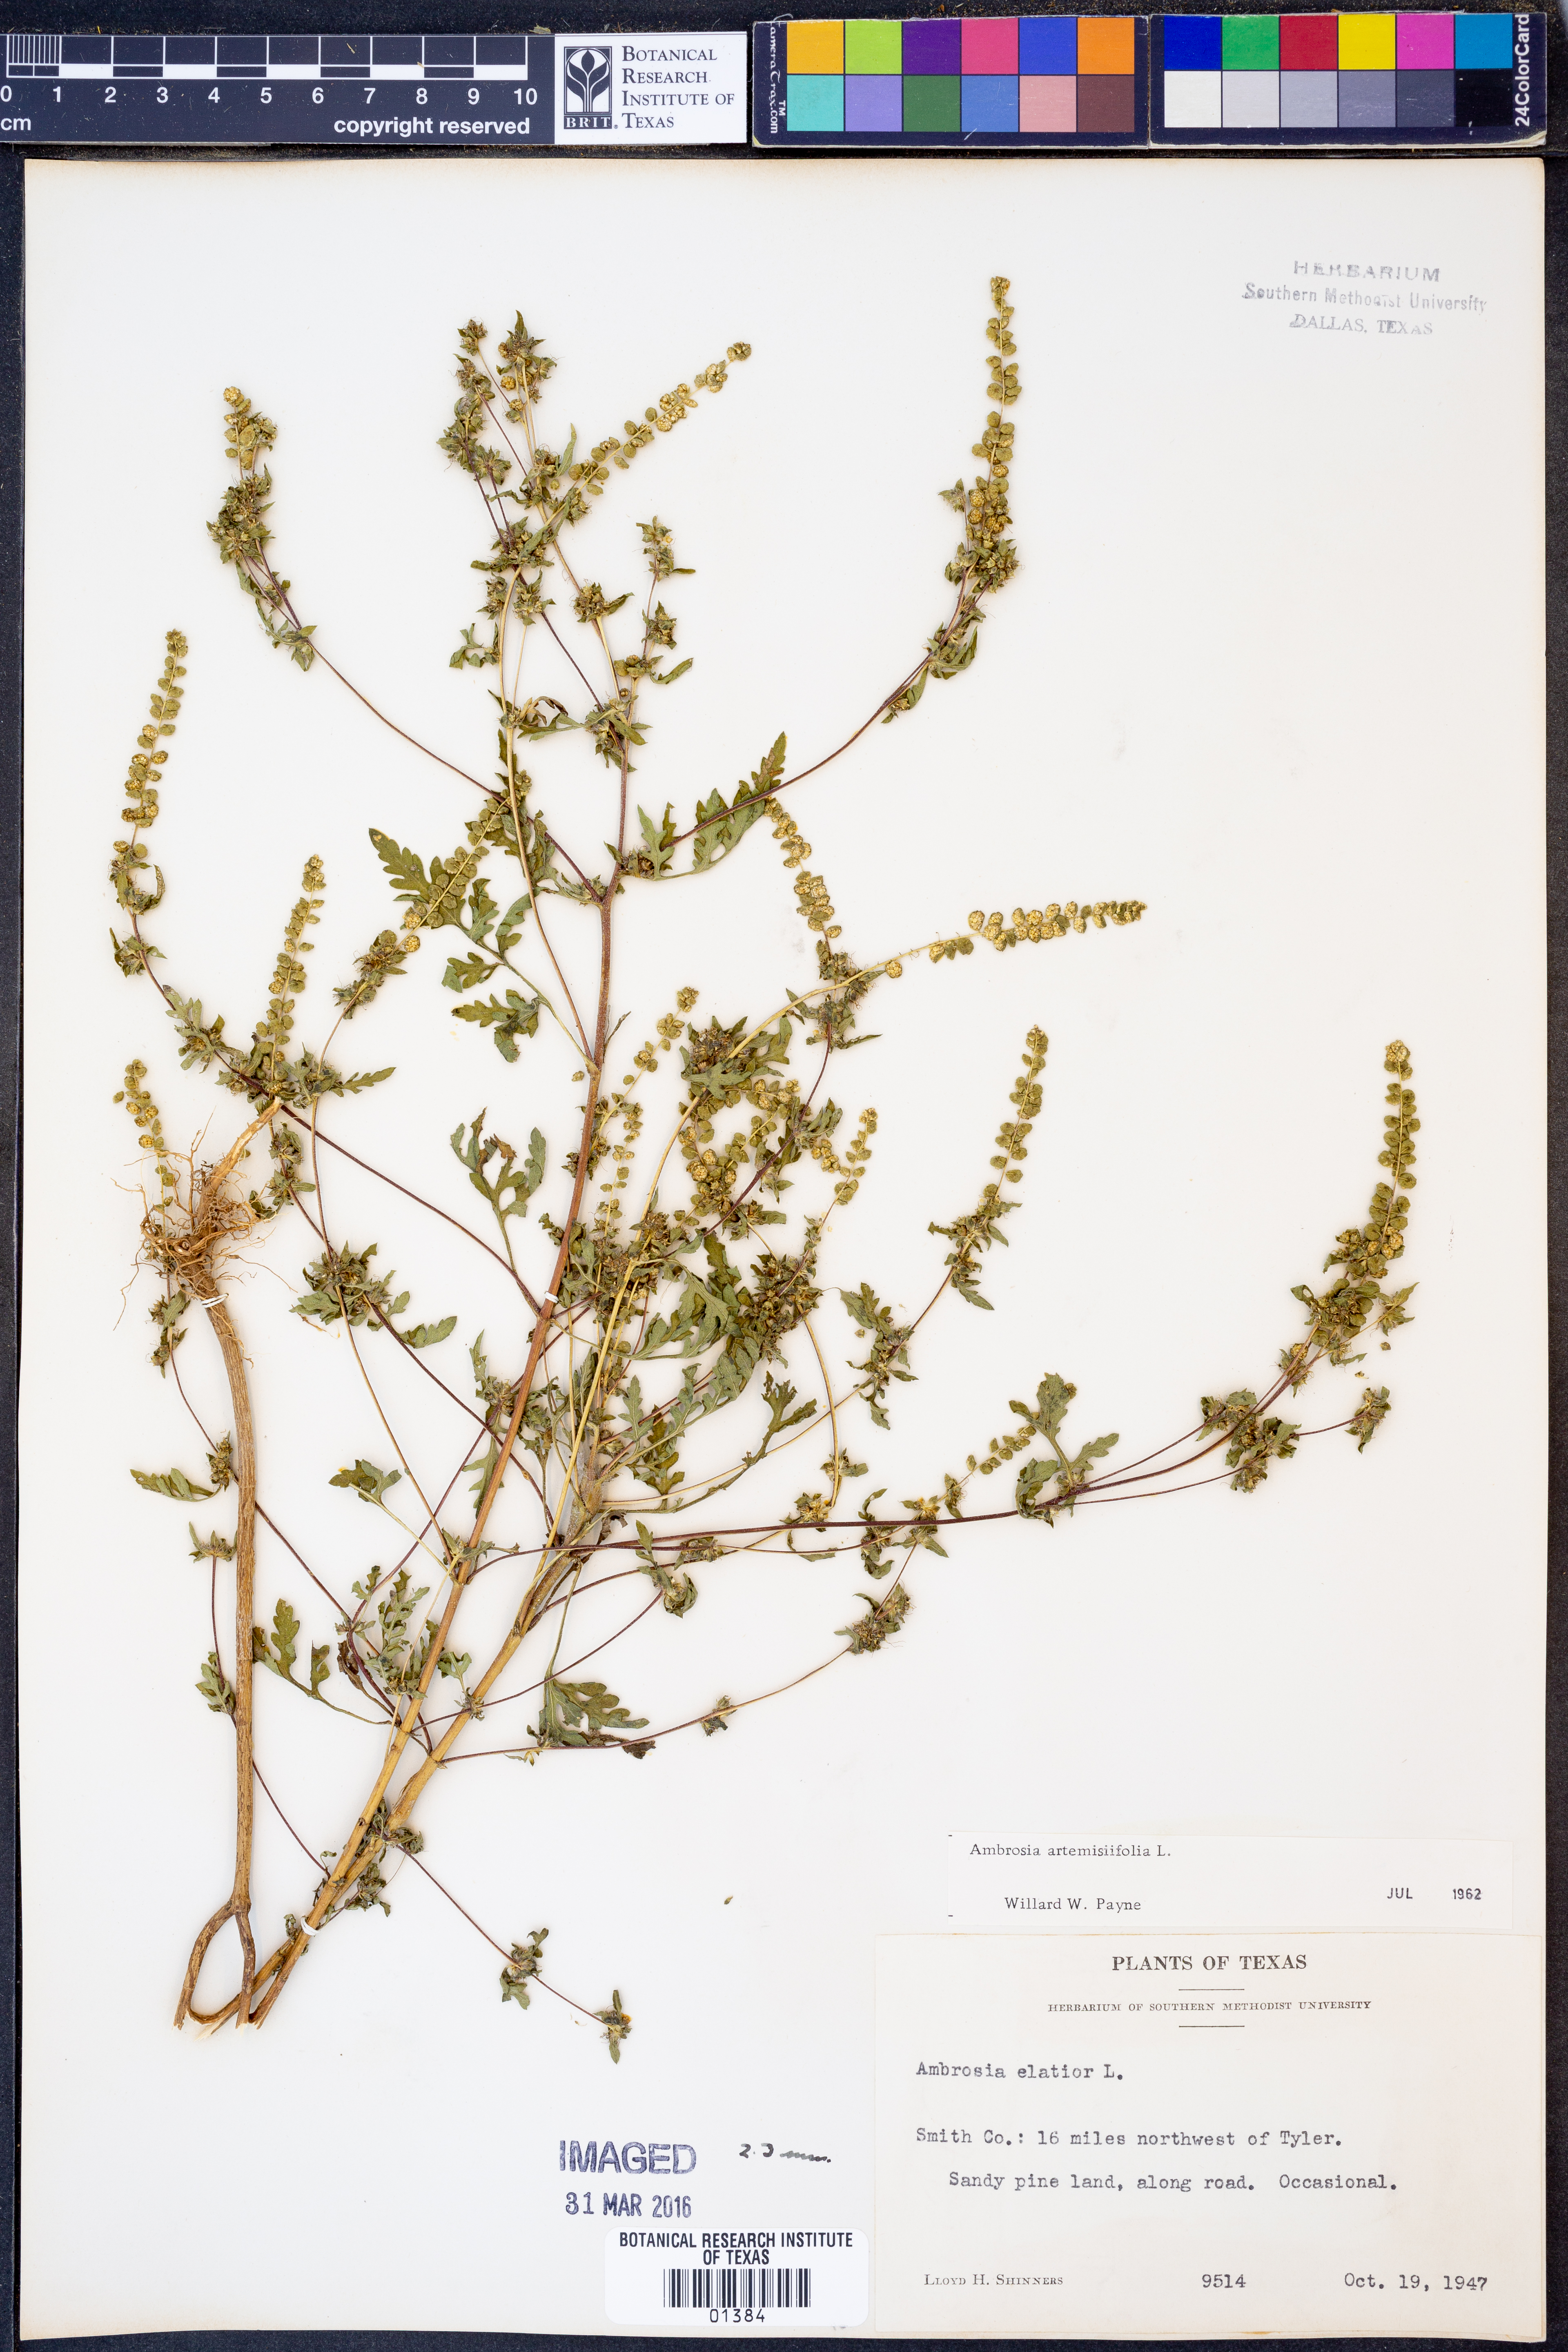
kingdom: Plantae
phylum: Tracheophyta
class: Magnoliopsida
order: Asterales
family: Asteraceae
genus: Ambrosia
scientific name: Ambrosia artemisiifolia
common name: Annual ragweed
